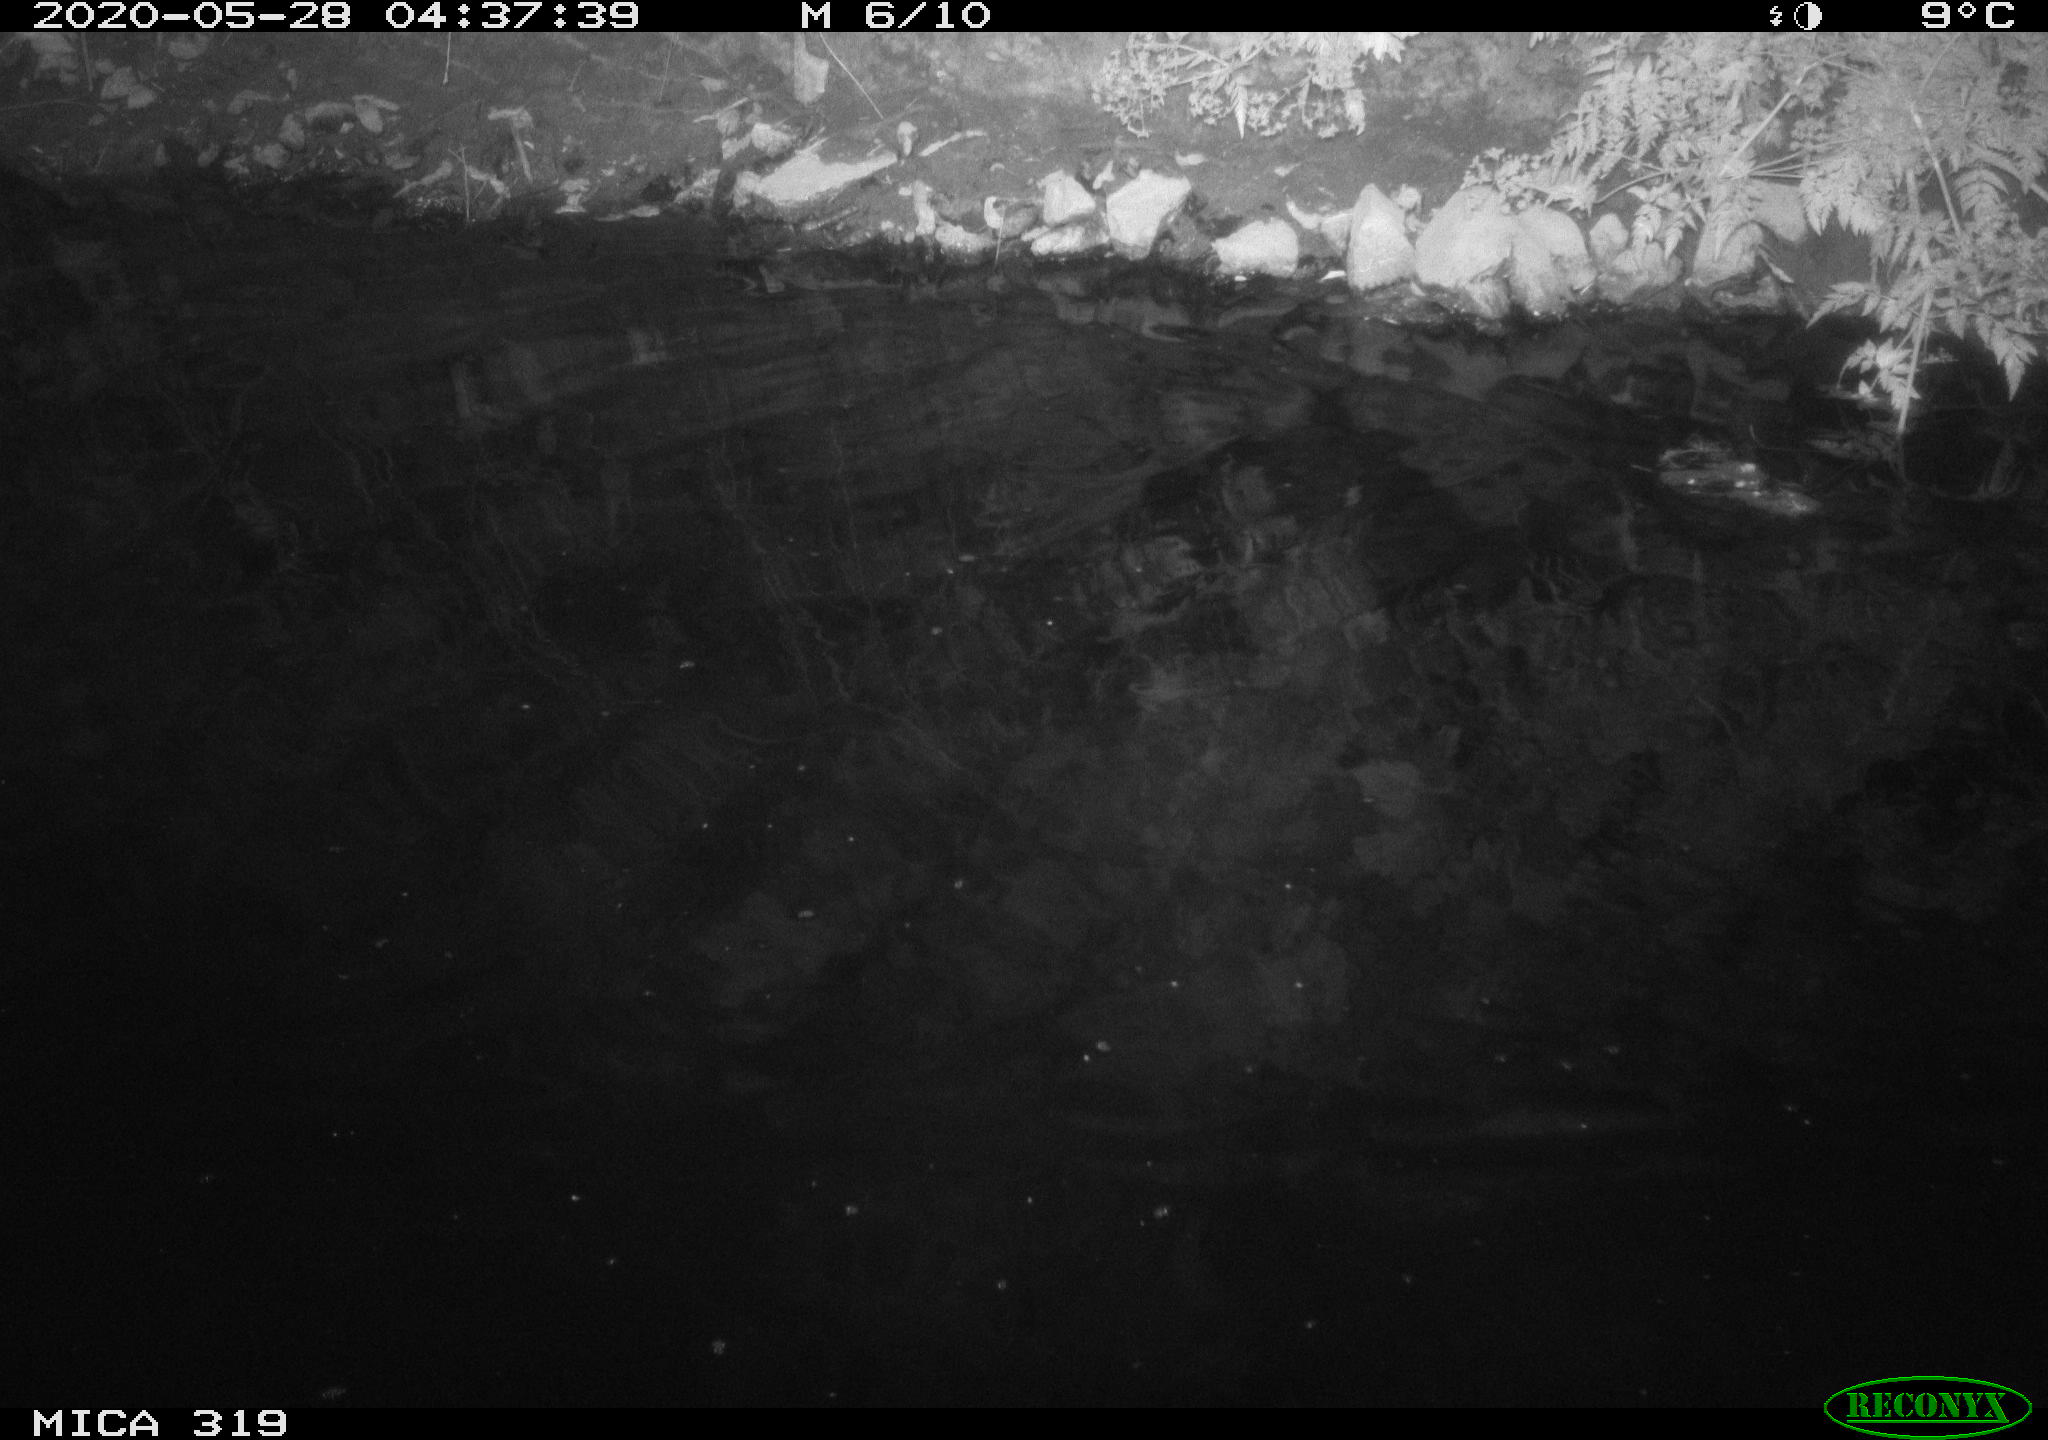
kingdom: Animalia
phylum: Chordata
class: Aves
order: Anseriformes
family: Anatidae
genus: Anas
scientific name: Anas platyrhynchos
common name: Mallard
